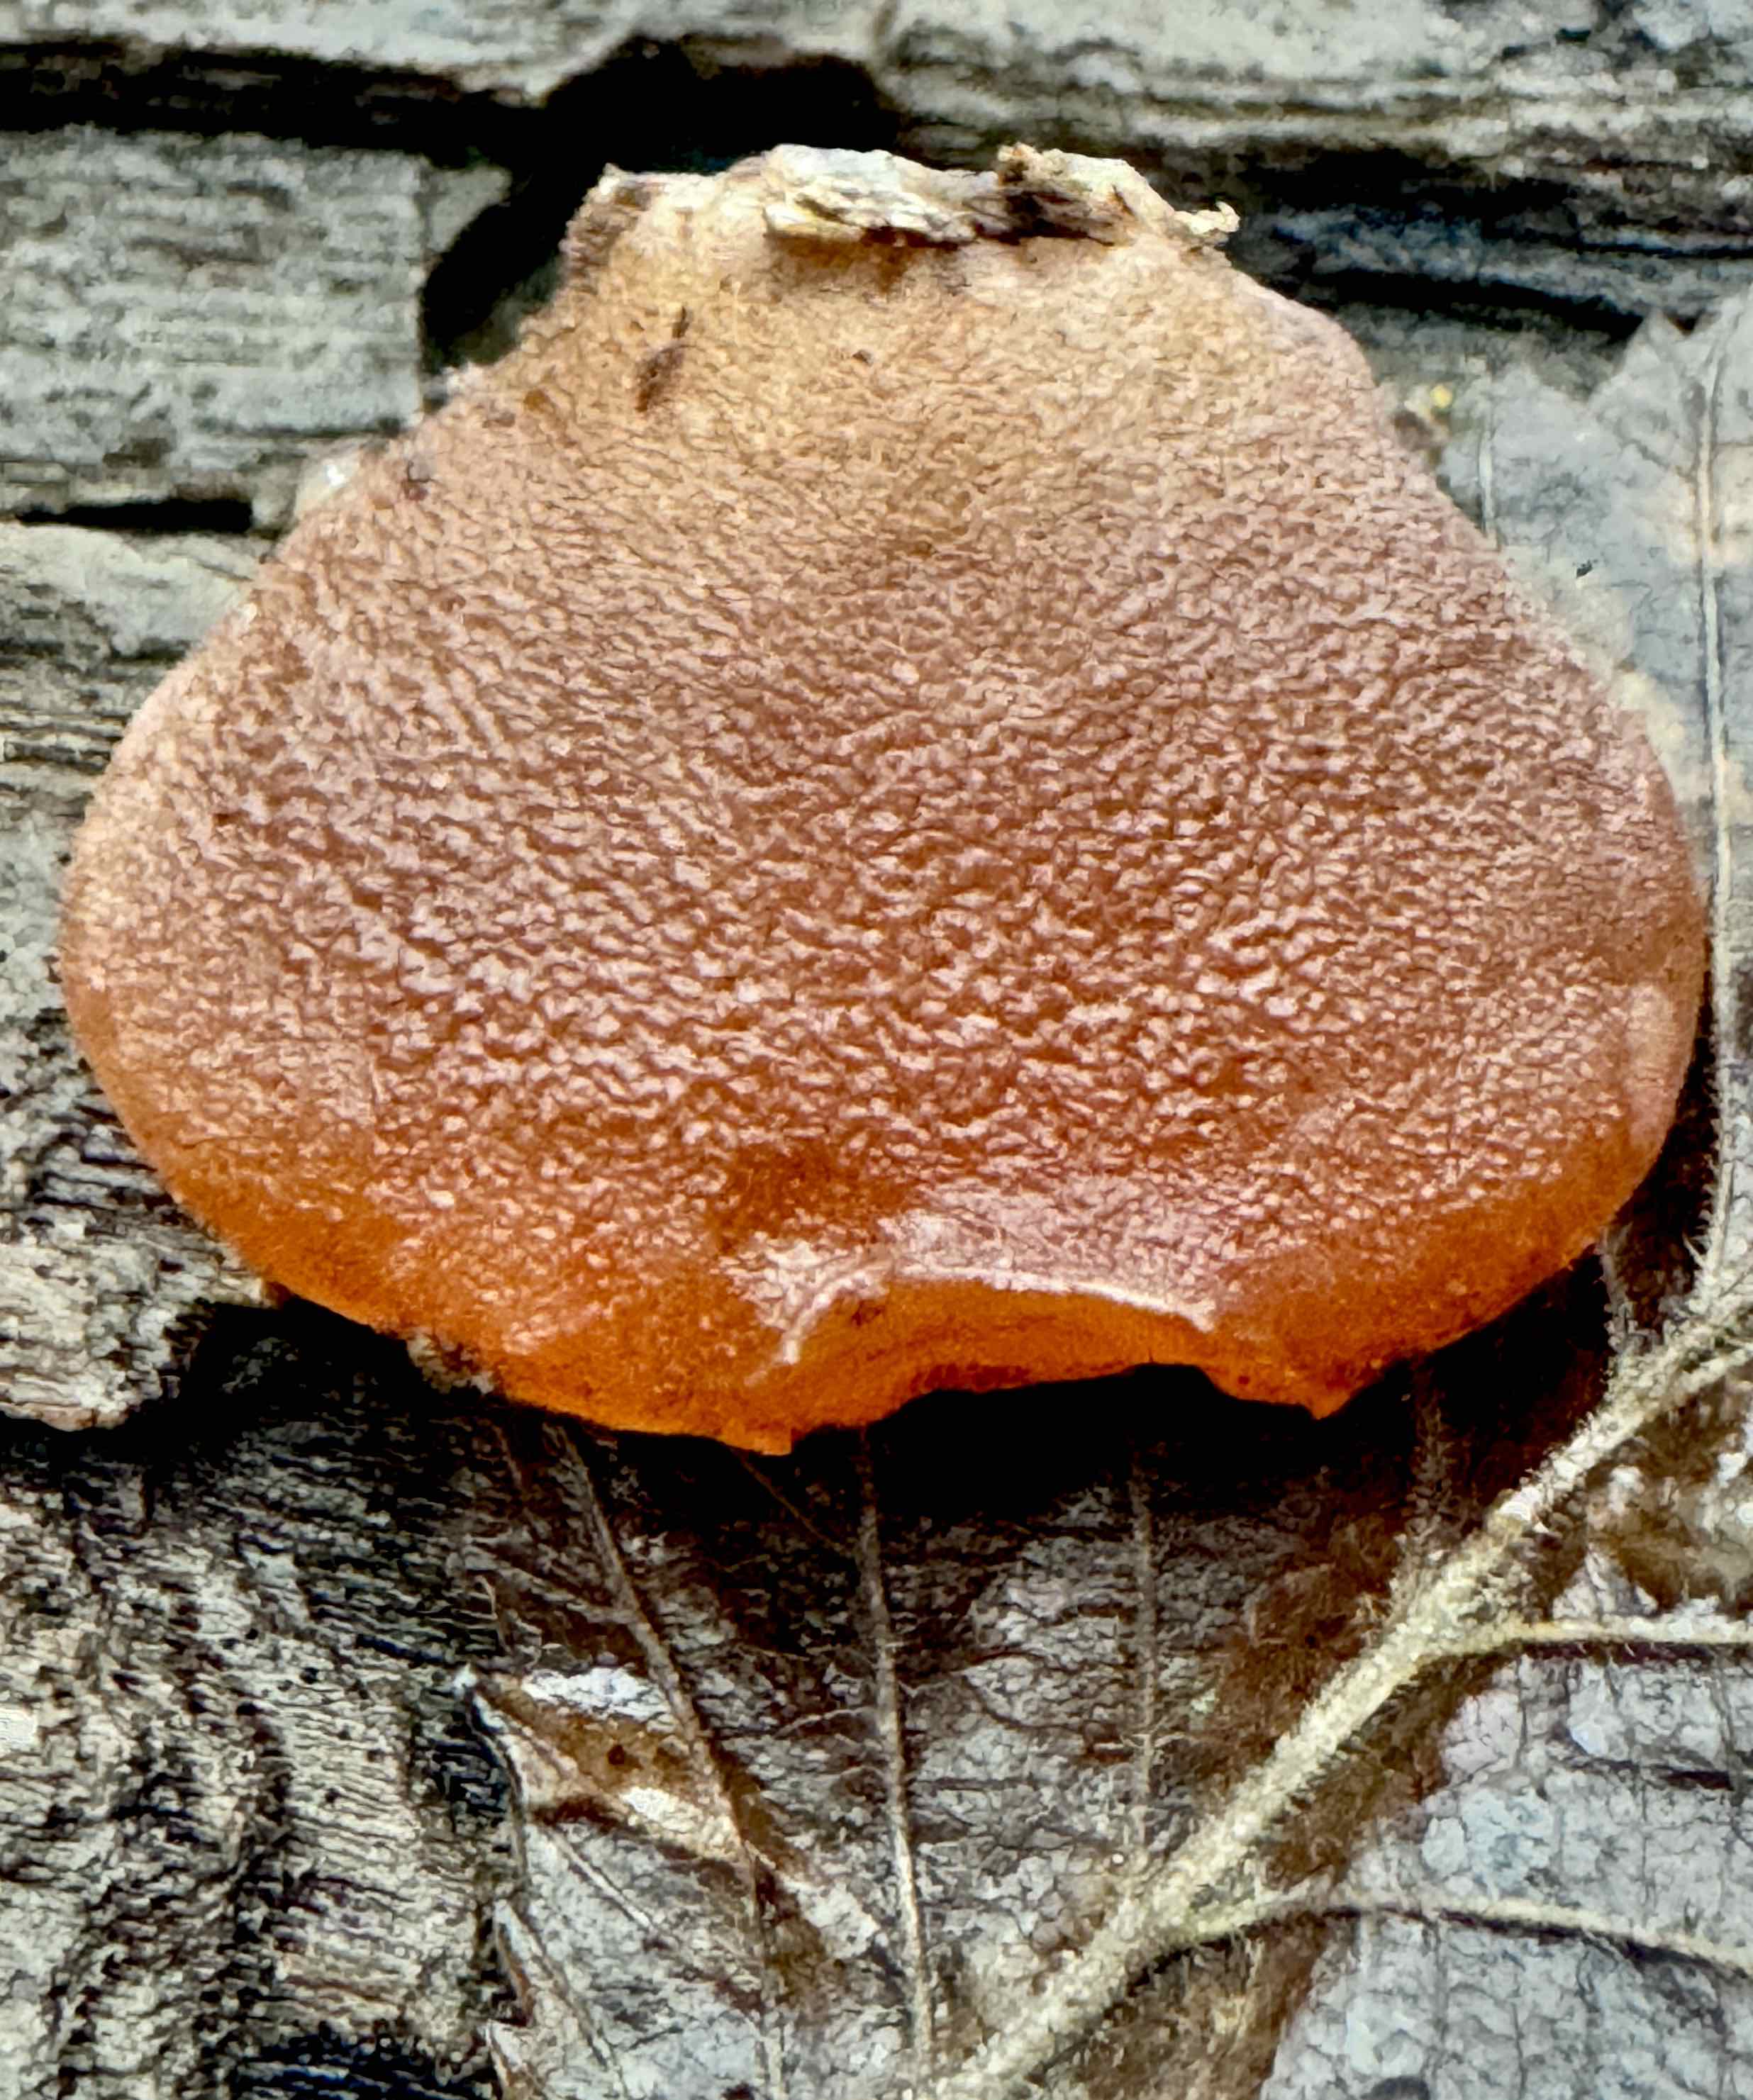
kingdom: Fungi
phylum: Basidiomycota
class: Agaricomycetes
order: Auriculariales
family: Auriculariaceae
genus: Auricularia
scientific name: Auricularia auricula-judae
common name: almindelig judasøre
